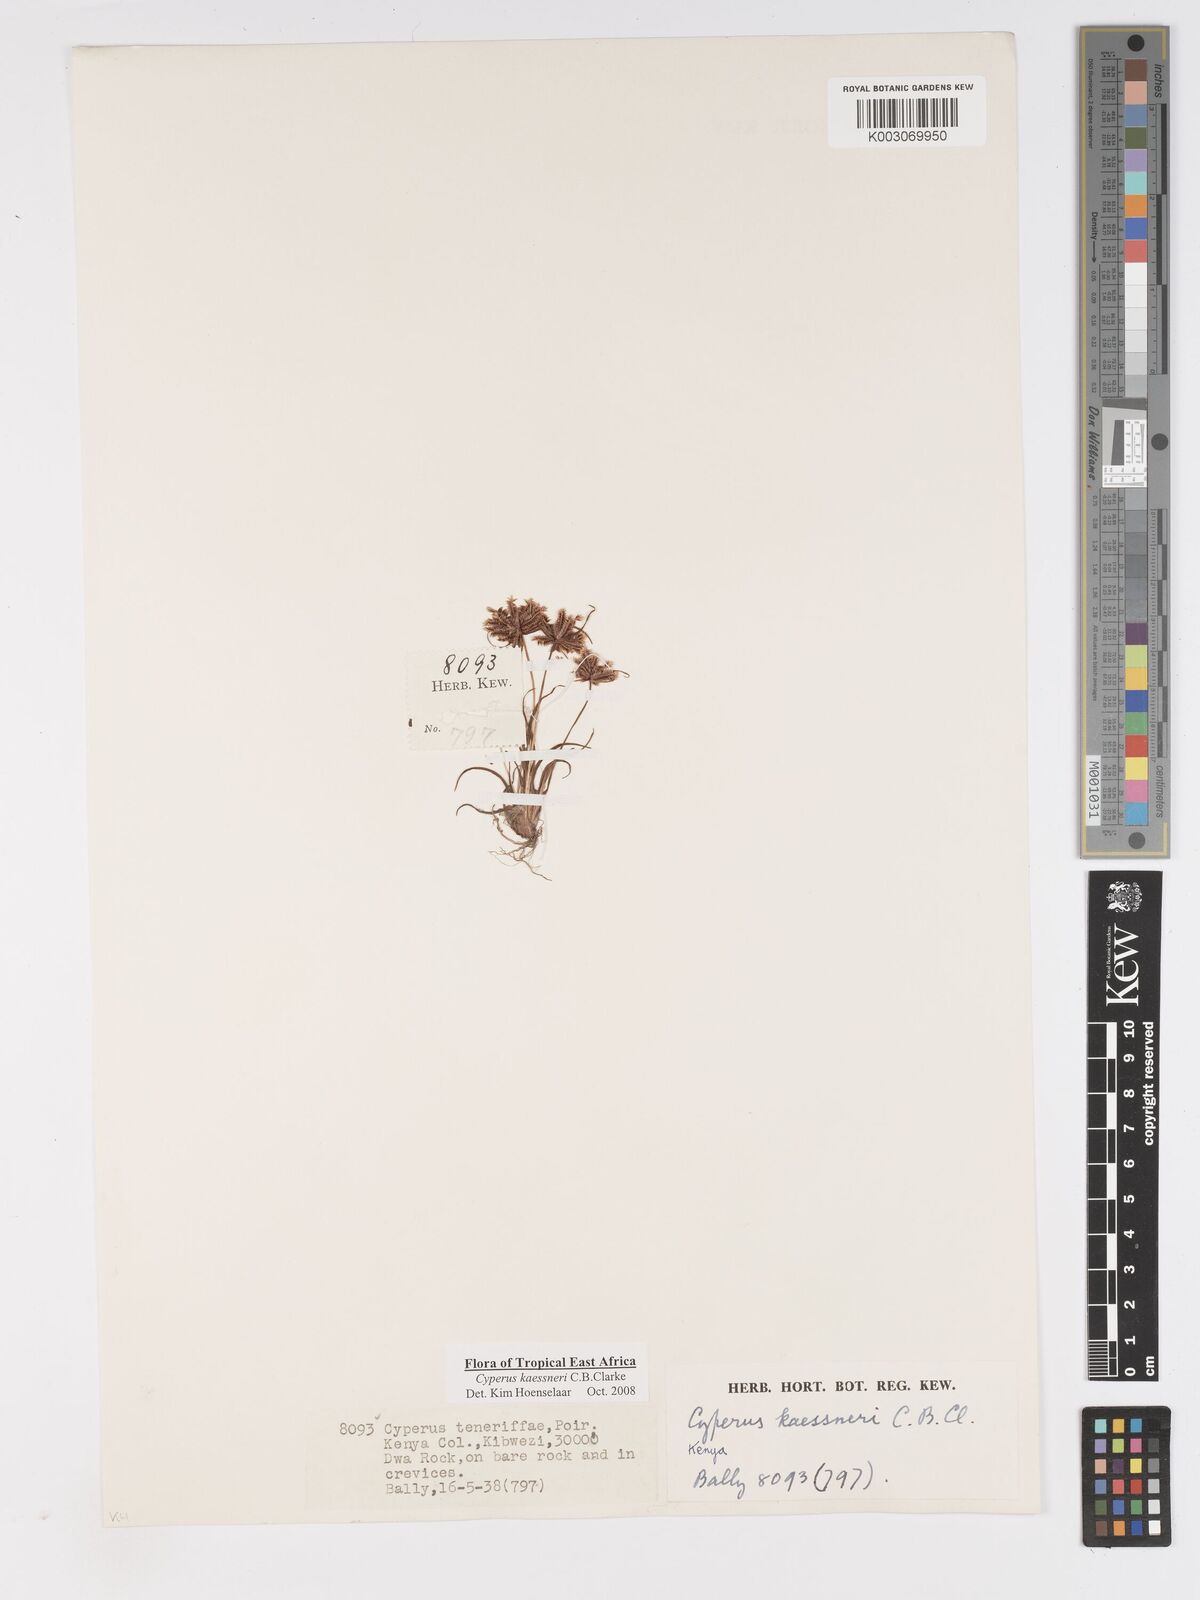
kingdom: Plantae
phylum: Tracheophyta
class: Liliopsida
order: Poales
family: Cyperaceae
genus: Cyperus
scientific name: Cyperus kaessneri
